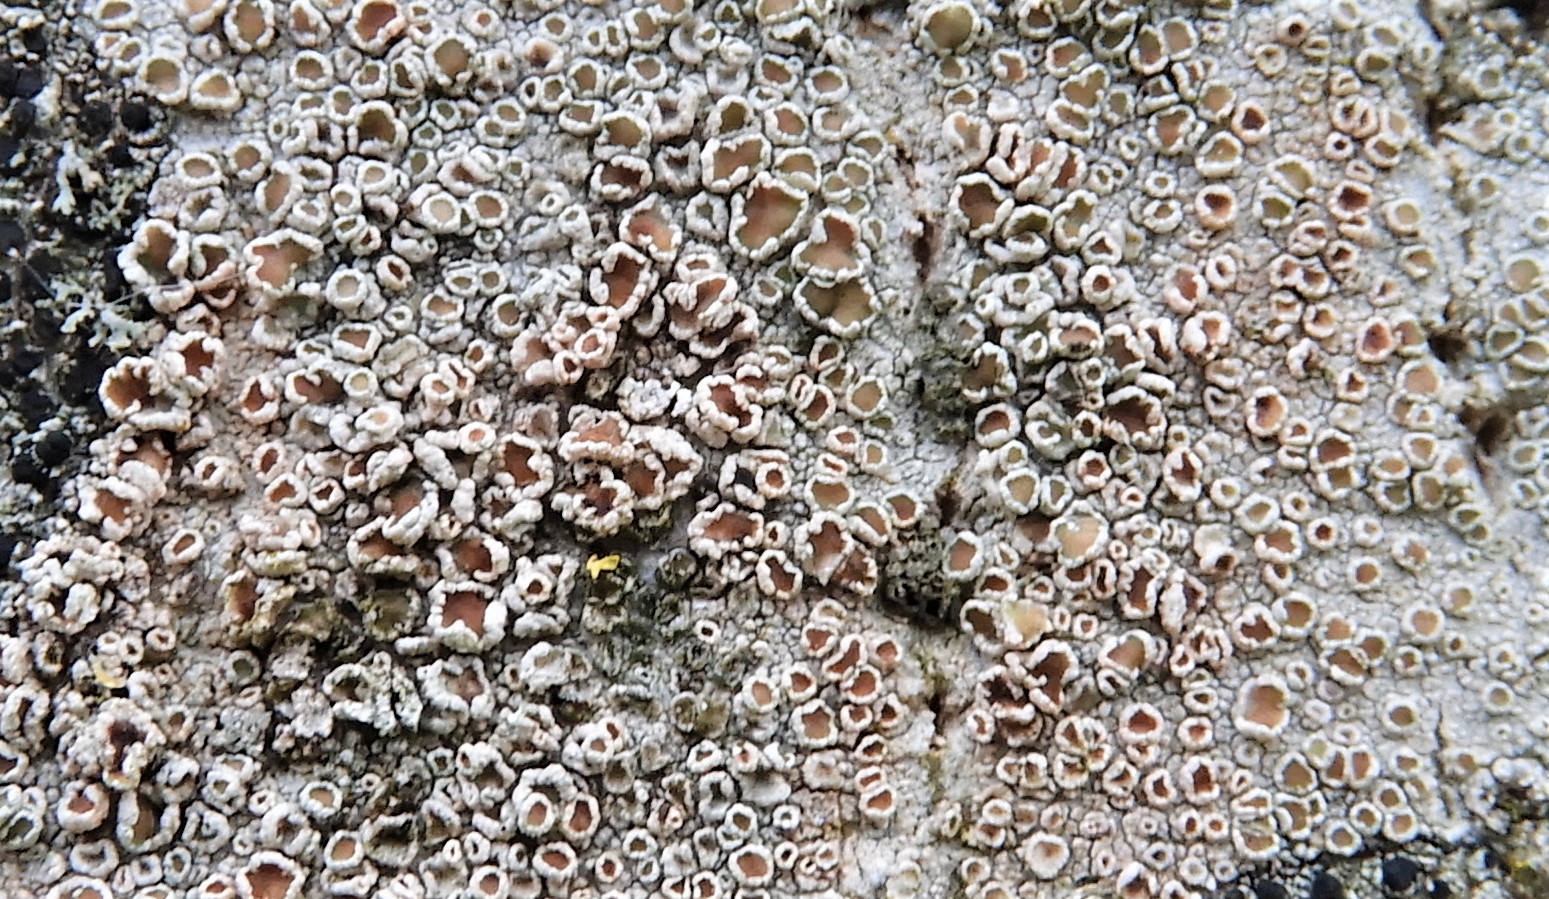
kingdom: Fungi
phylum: Ascomycota
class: Lecanoromycetes
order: Lecanorales
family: Lecanoraceae
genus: Lecanora
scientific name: Lecanora chlarotera
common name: brun kantskivelav
